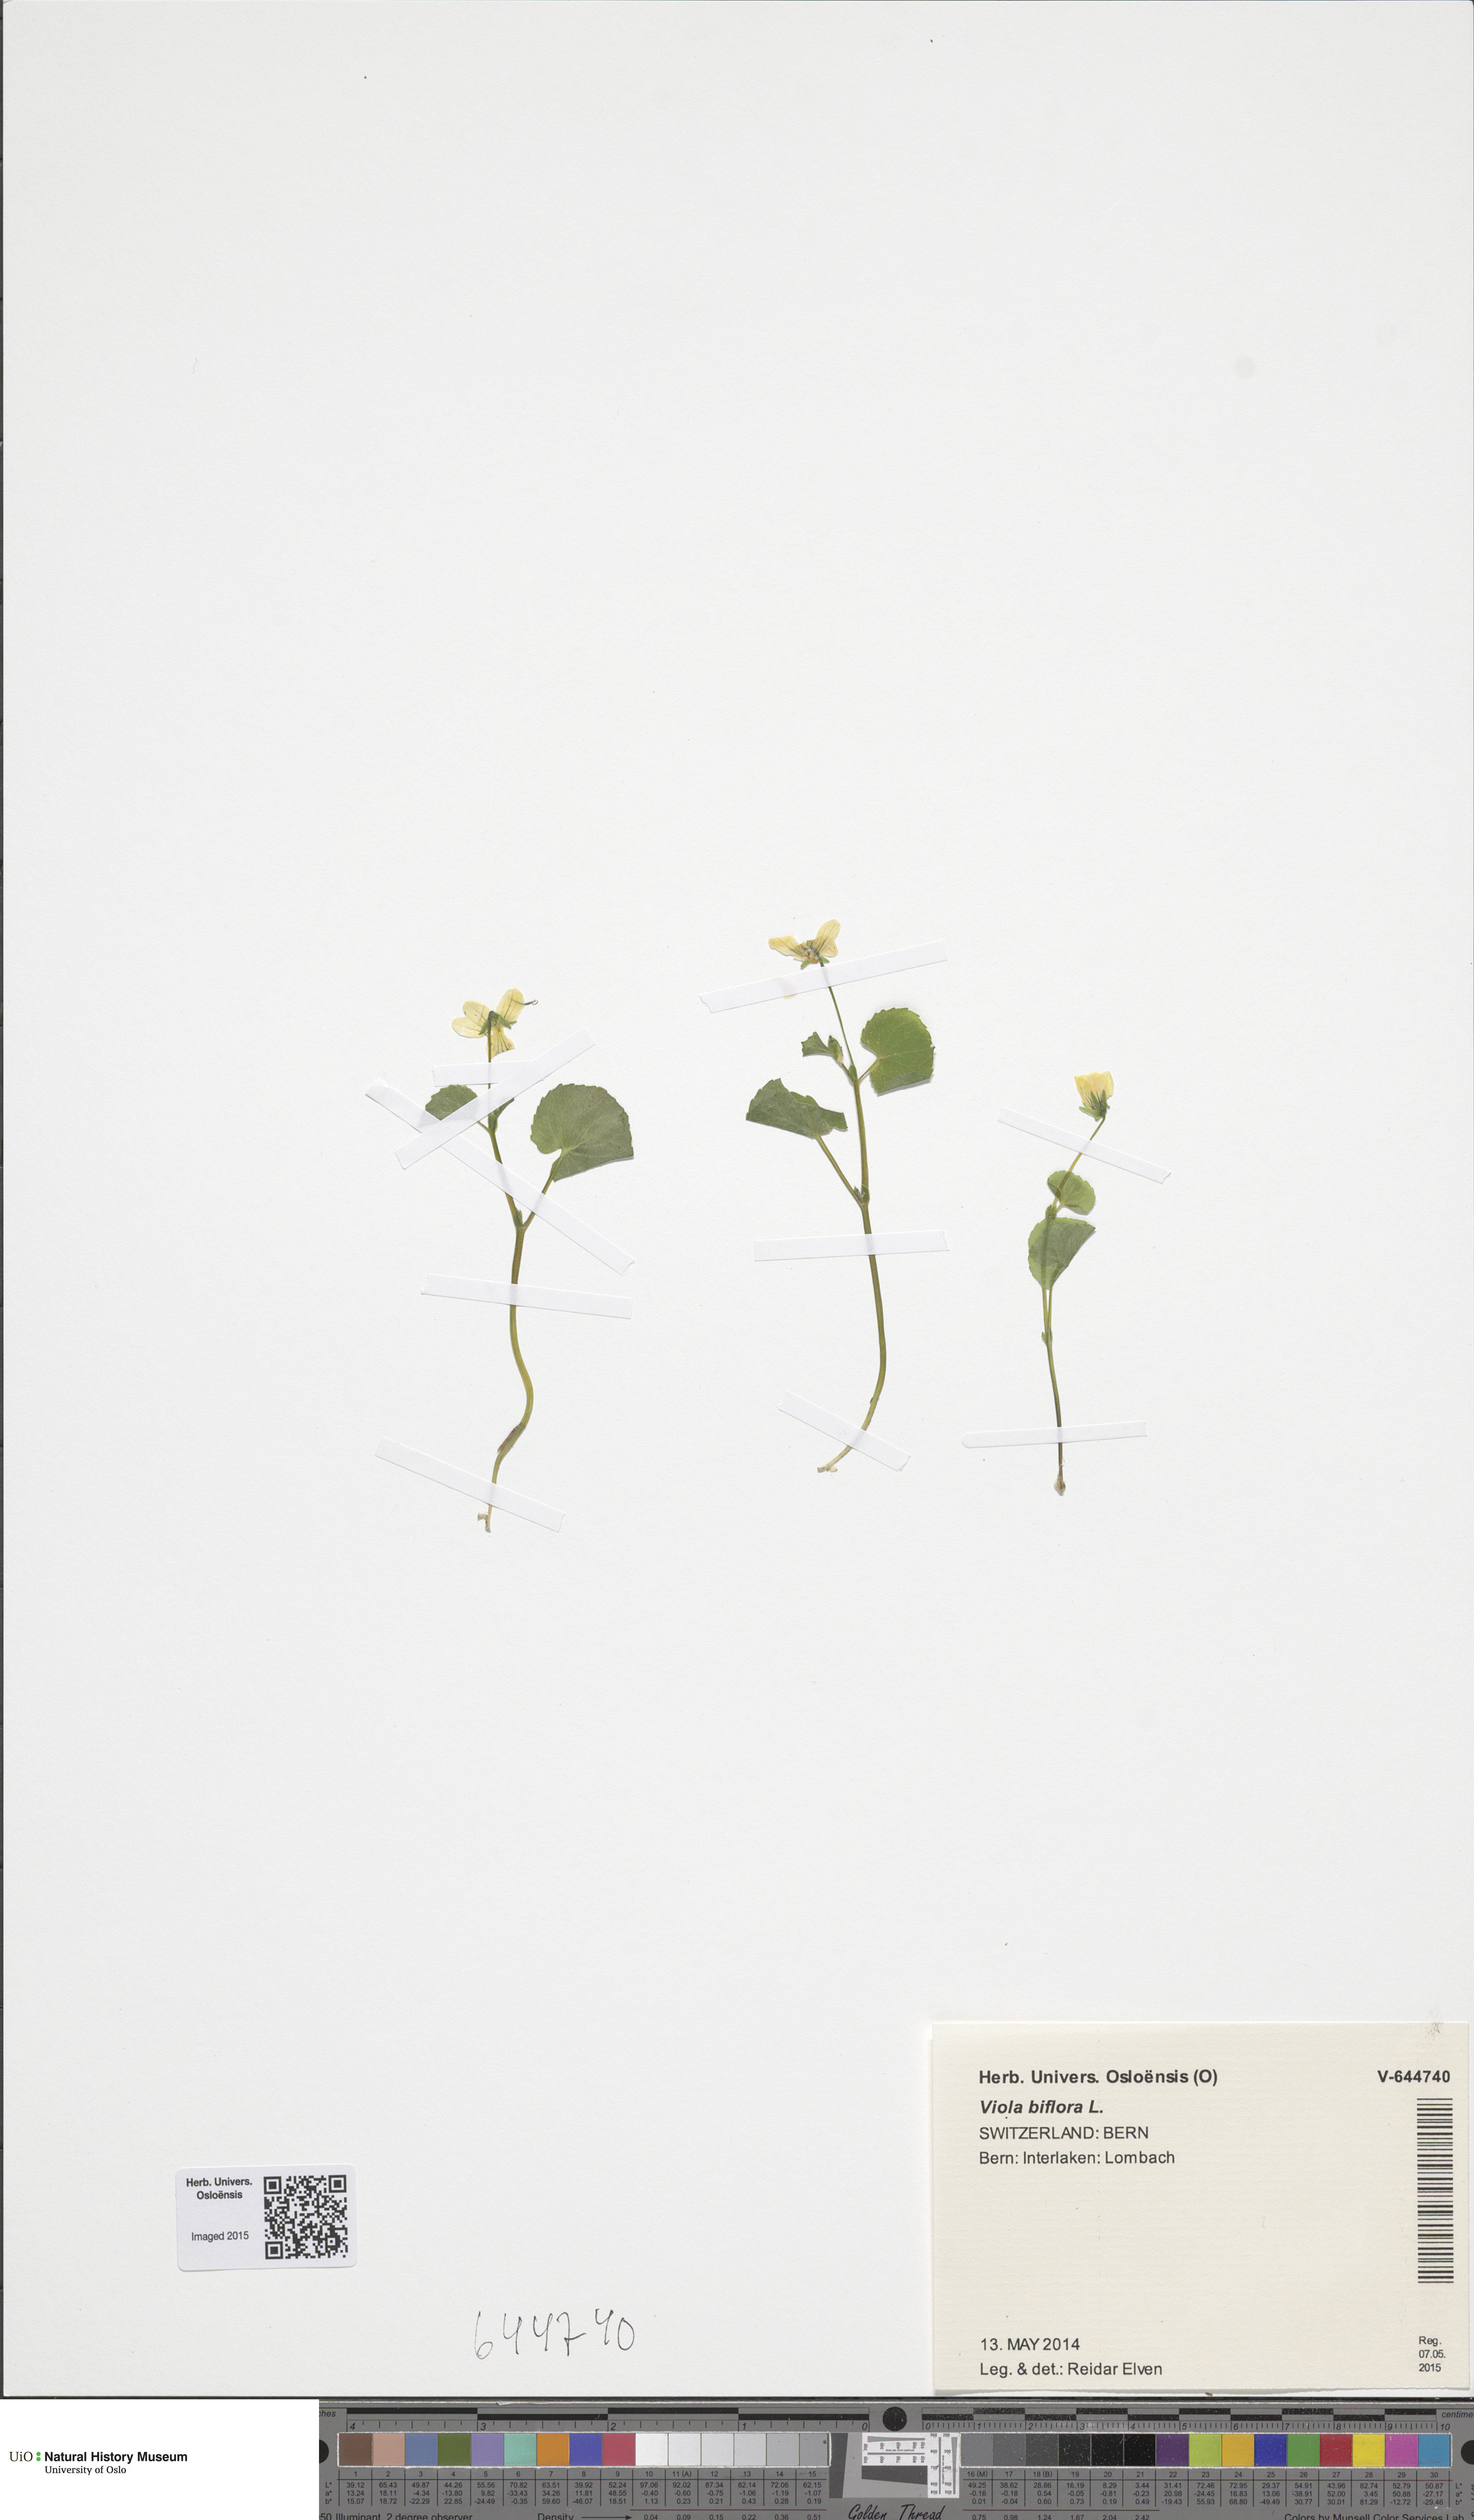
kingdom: Plantae
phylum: Tracheophyta
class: Magnoliopsida
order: Malpighiales
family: Violaceae
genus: Viola
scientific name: Viola biflora
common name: Alpine yellow violet
